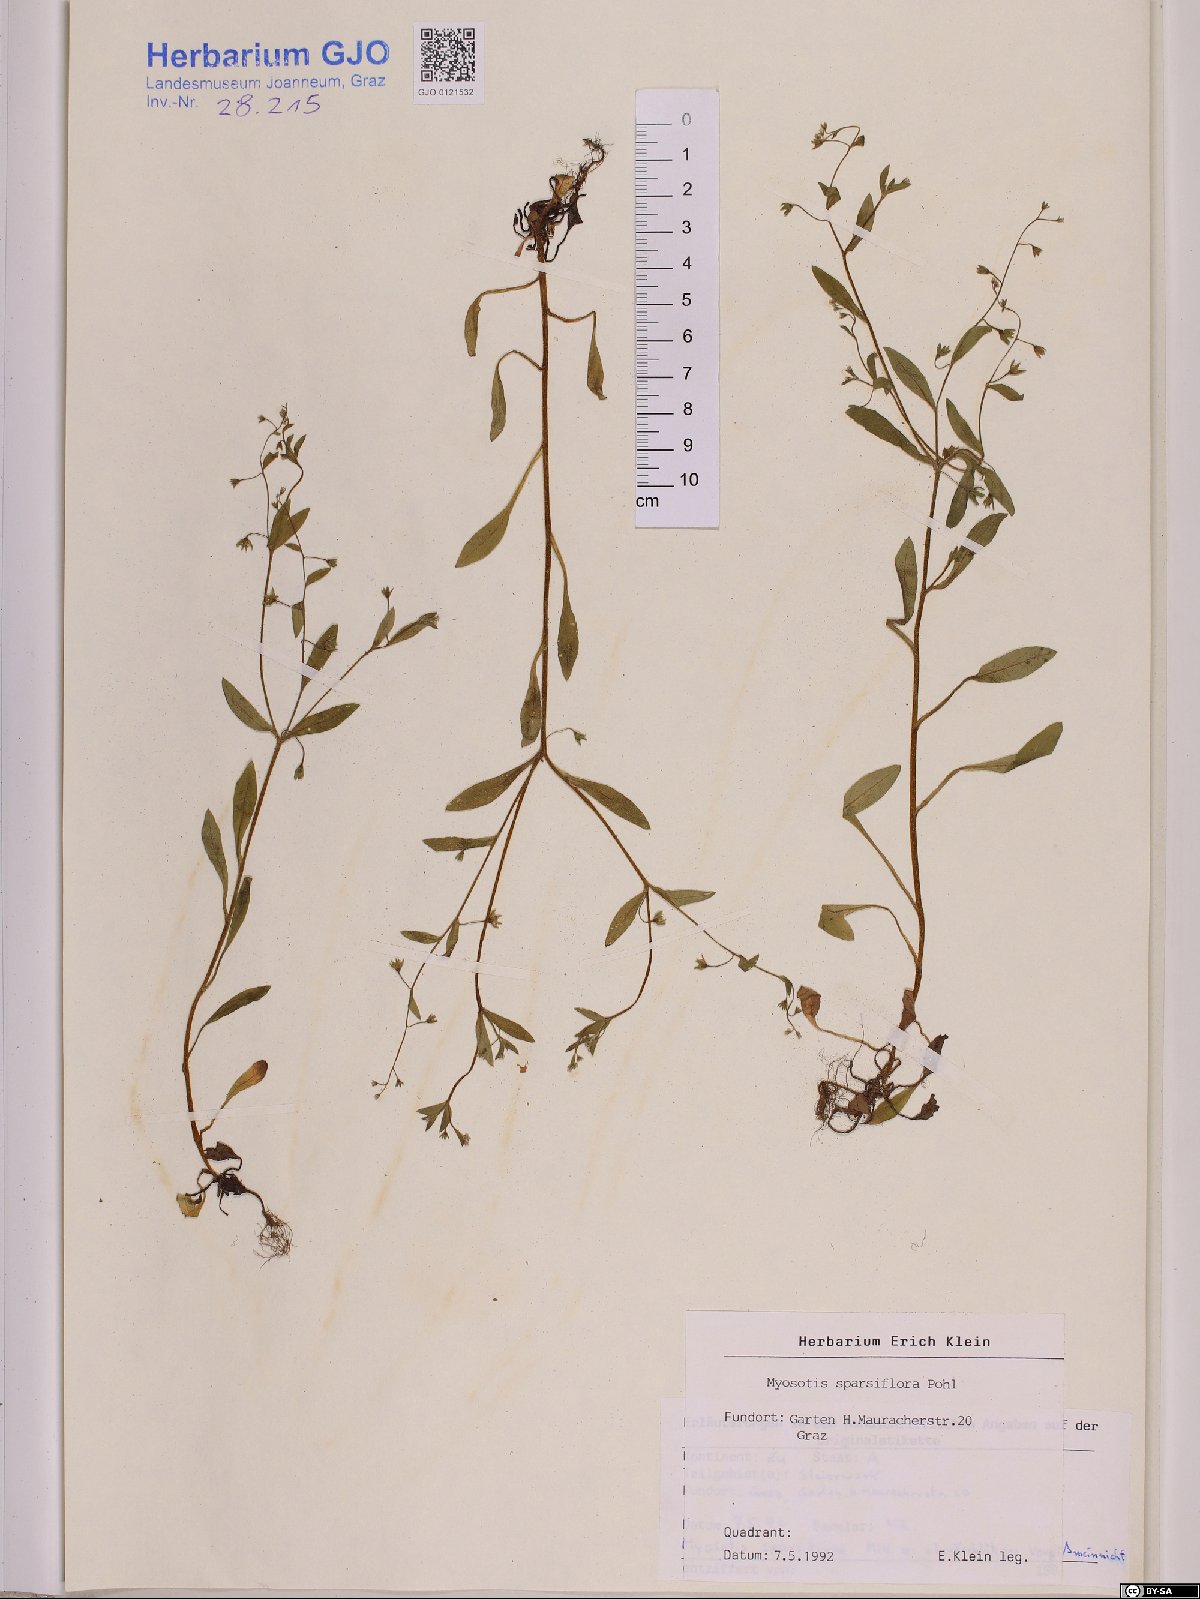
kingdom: Plantae
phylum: Tracheophyta
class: Magnoliopsida
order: Boraginales
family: Boraginaceae
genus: Myosotis
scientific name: Myosotis sparsiflora
